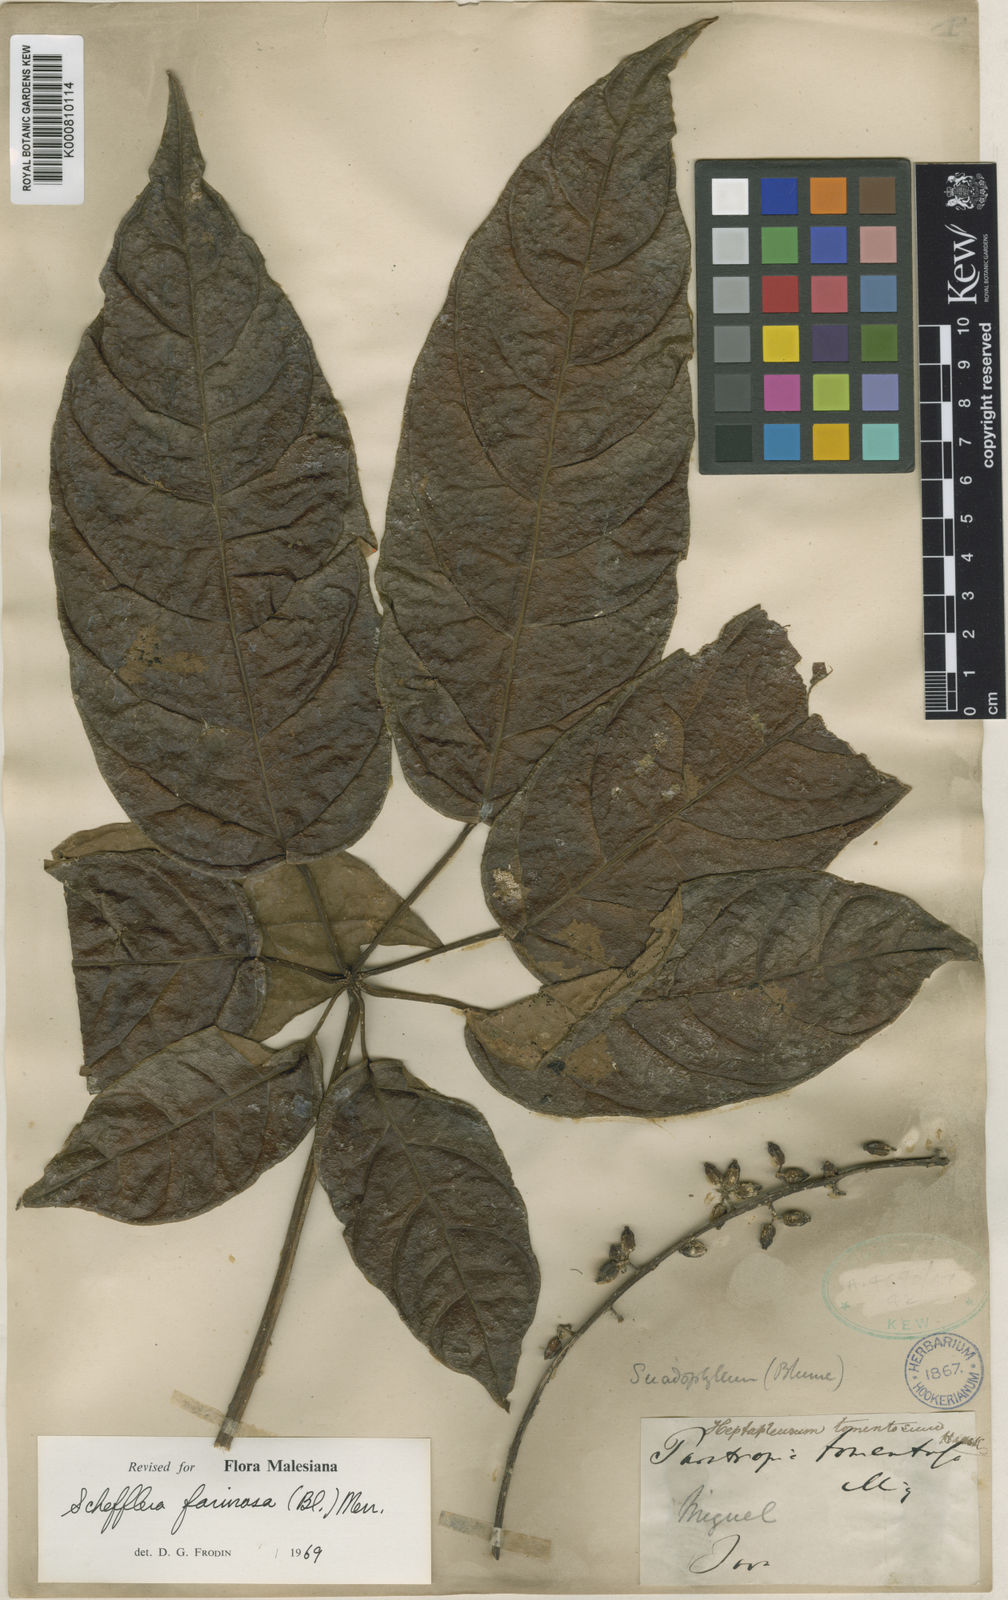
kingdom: Plantae
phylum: Tracheophyta
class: Magnoliopsida
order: Apiales
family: Araliaceae
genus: Heptapleurum
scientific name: Heptapleurum farinosum
